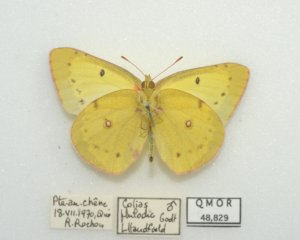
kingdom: Animalia
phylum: Arthropoda
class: Insecta
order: Lepidoptera
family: Pieridae
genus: Colias
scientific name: Colias philodice
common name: Clouded Sulphur
